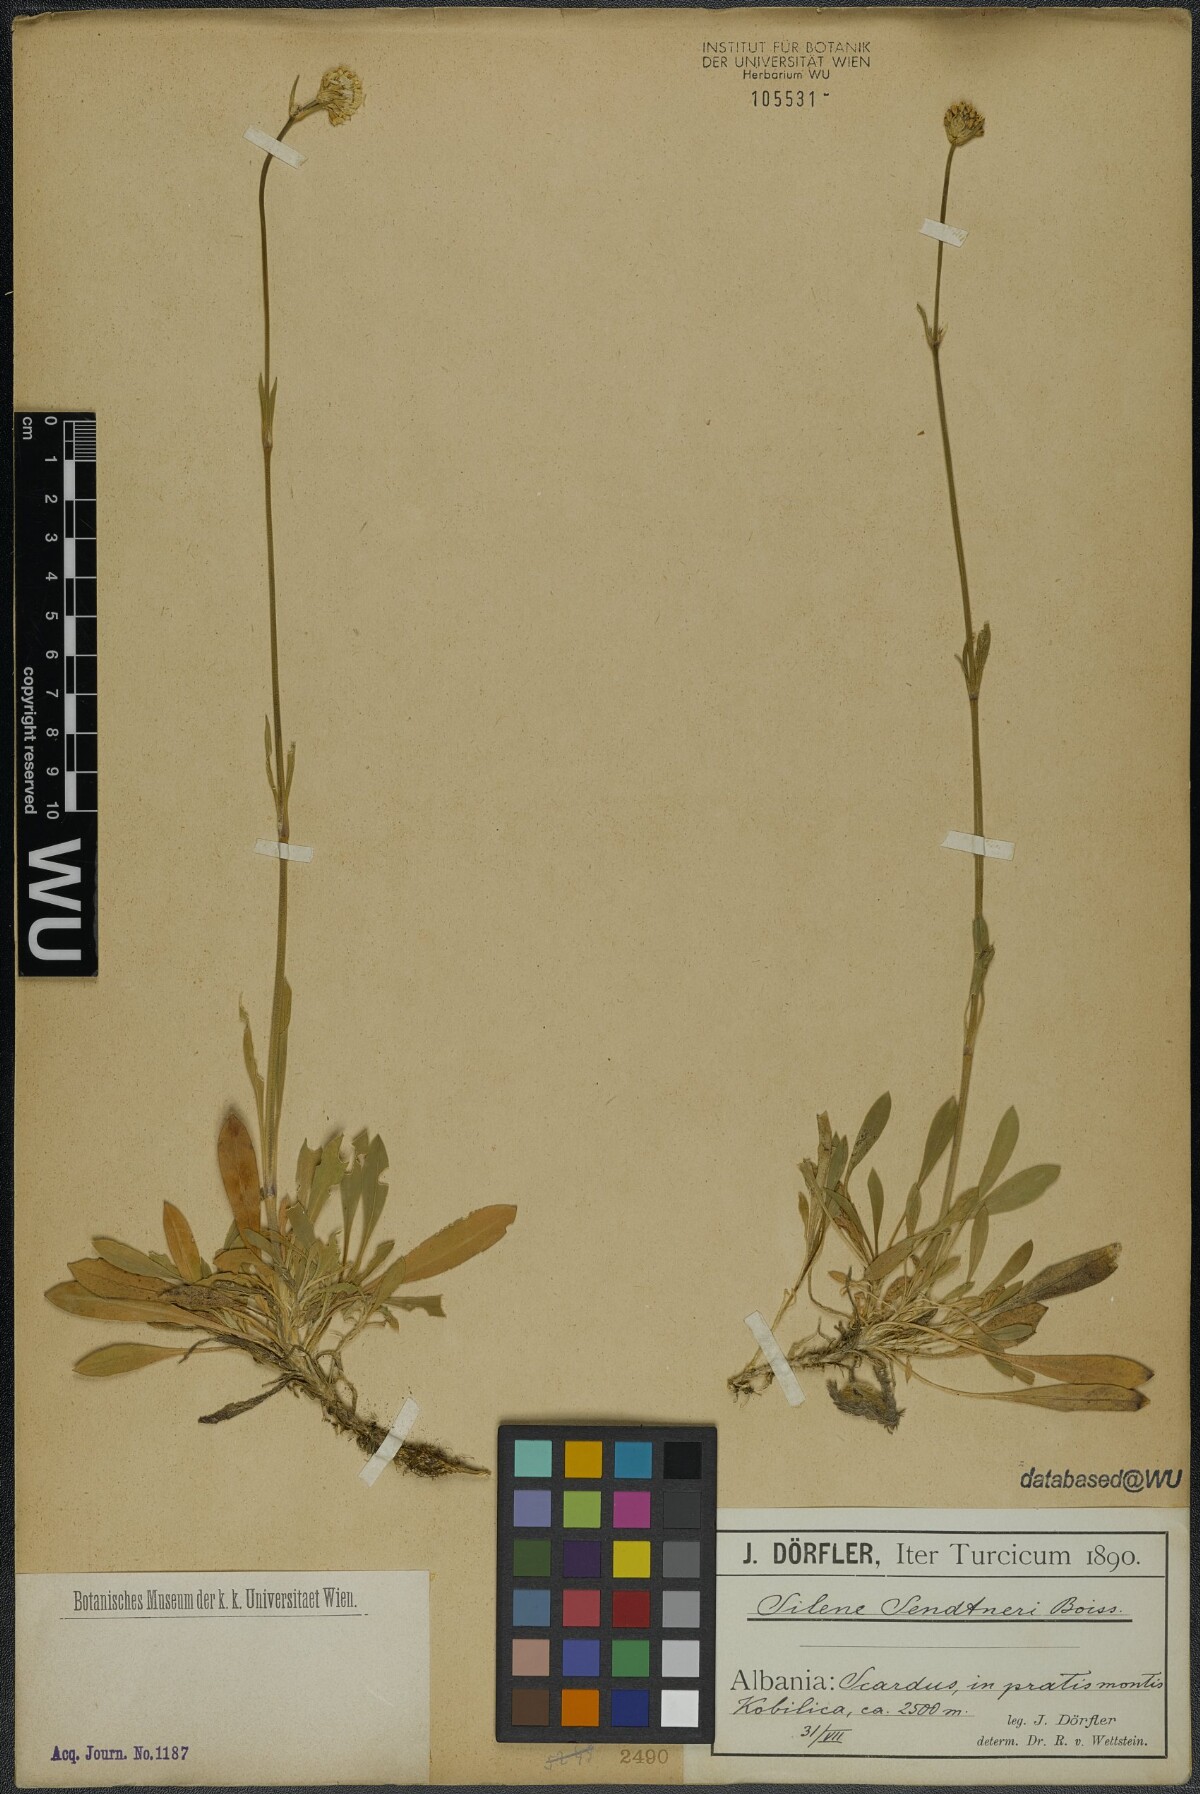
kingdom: Plantae
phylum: Tracheophyta
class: Magnoliopsida
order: Caryophyllales
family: Caryophyllaceae
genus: Silene
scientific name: Silene sendtneri
